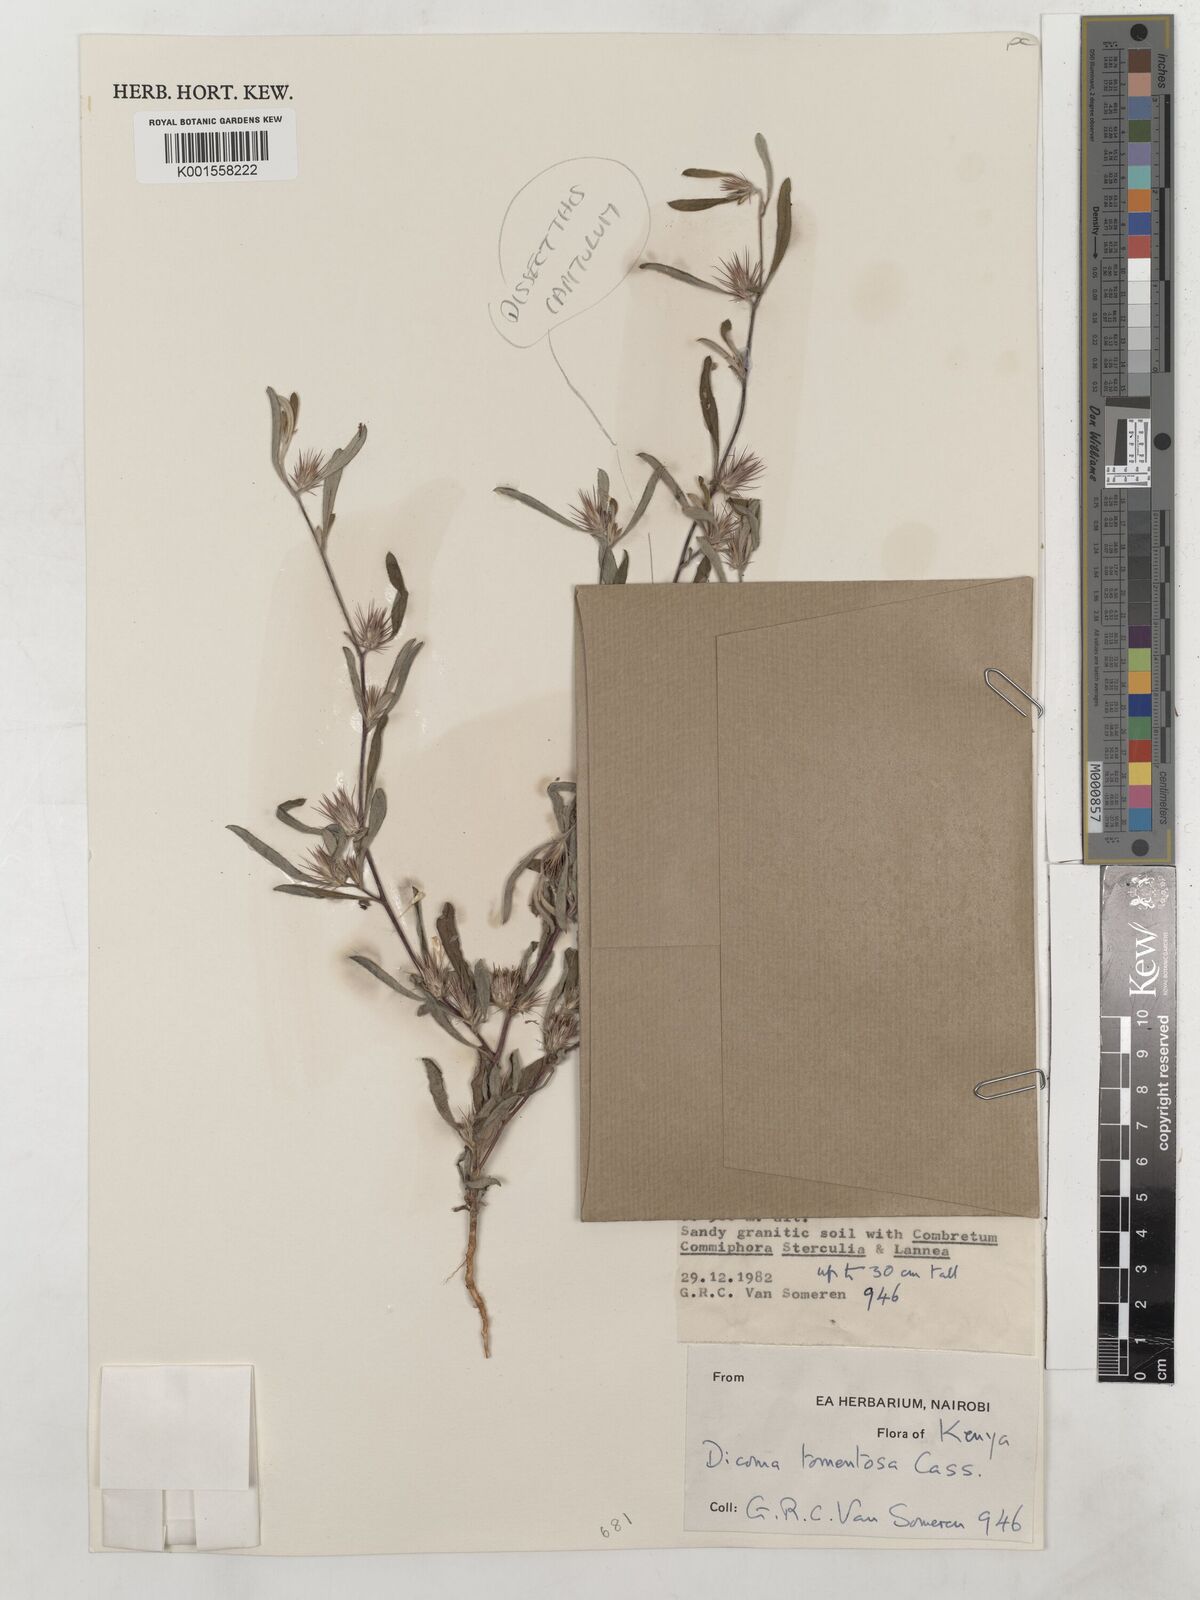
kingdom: Plantae
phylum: Tracheophyta
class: Magnoliopsida
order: Asterales
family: Asteraceae
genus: Dicoma
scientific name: Dicoma tomentosa
